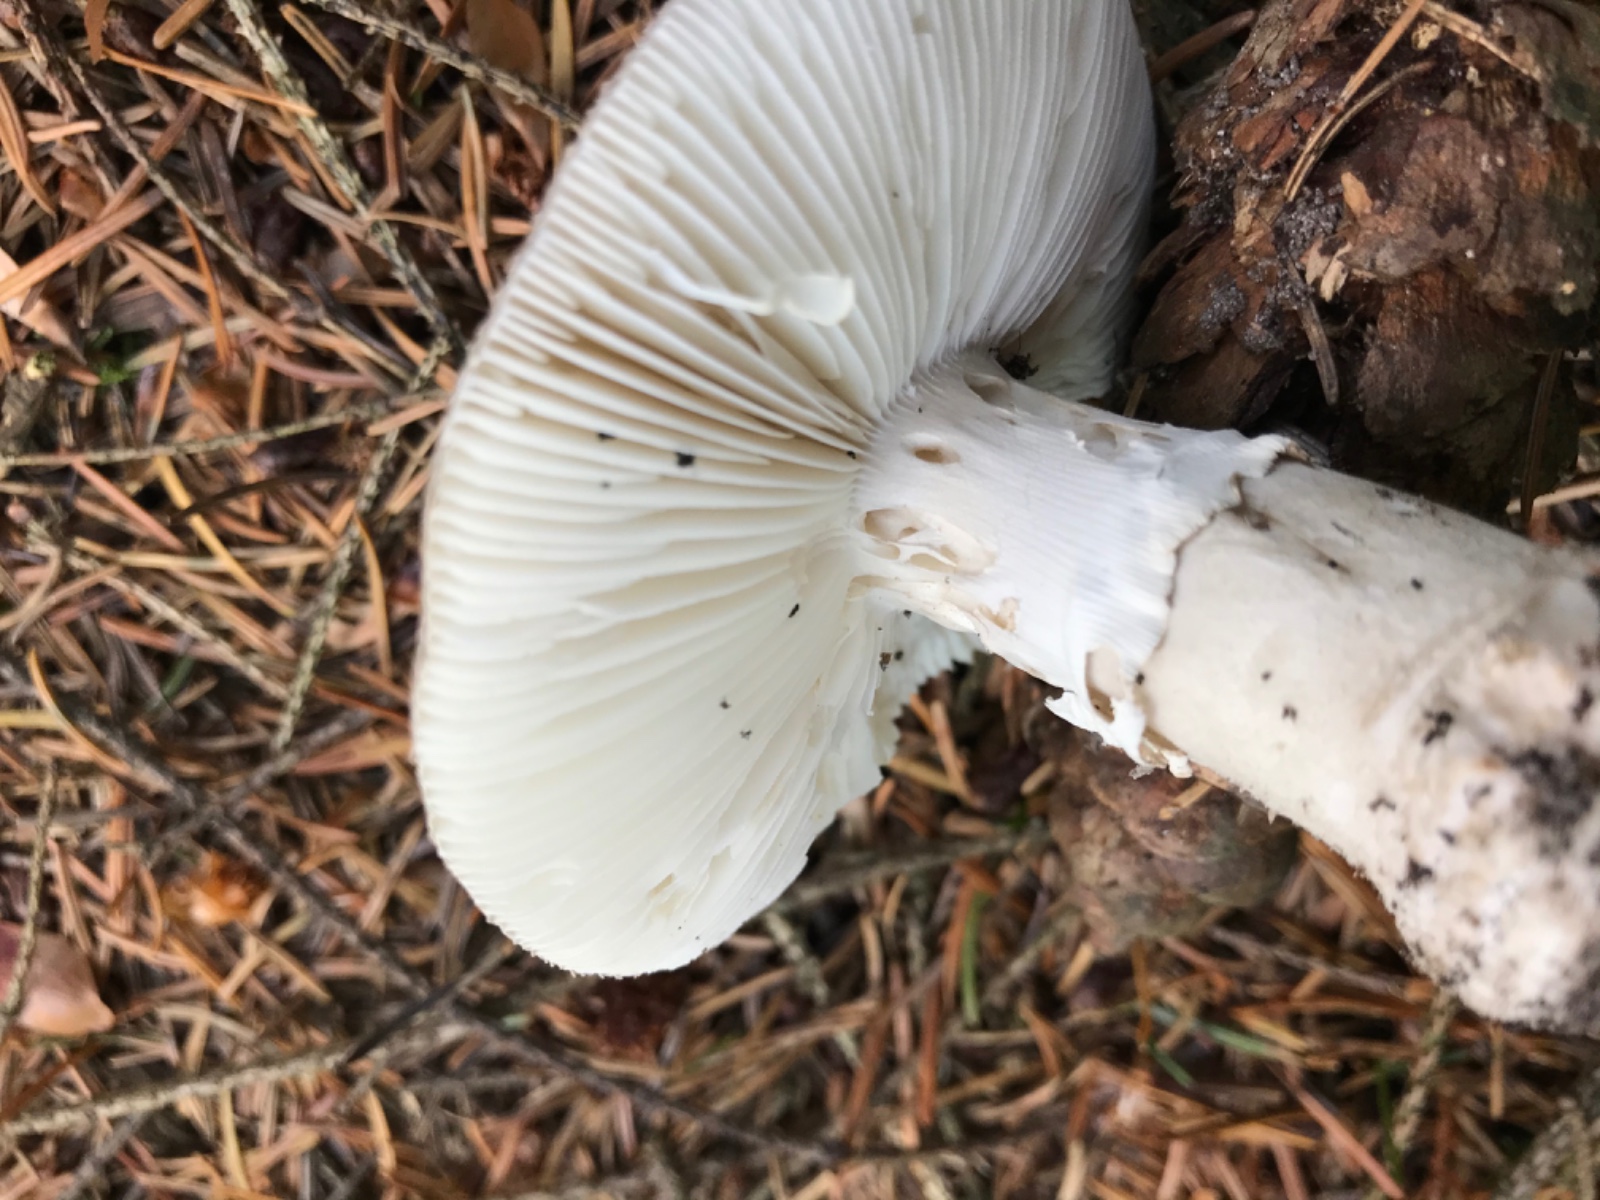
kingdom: Fungi
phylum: Basidiomycota
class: Agaricomycetes
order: Agaricales
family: Amanitaceae
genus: Amanita
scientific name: Amanita
